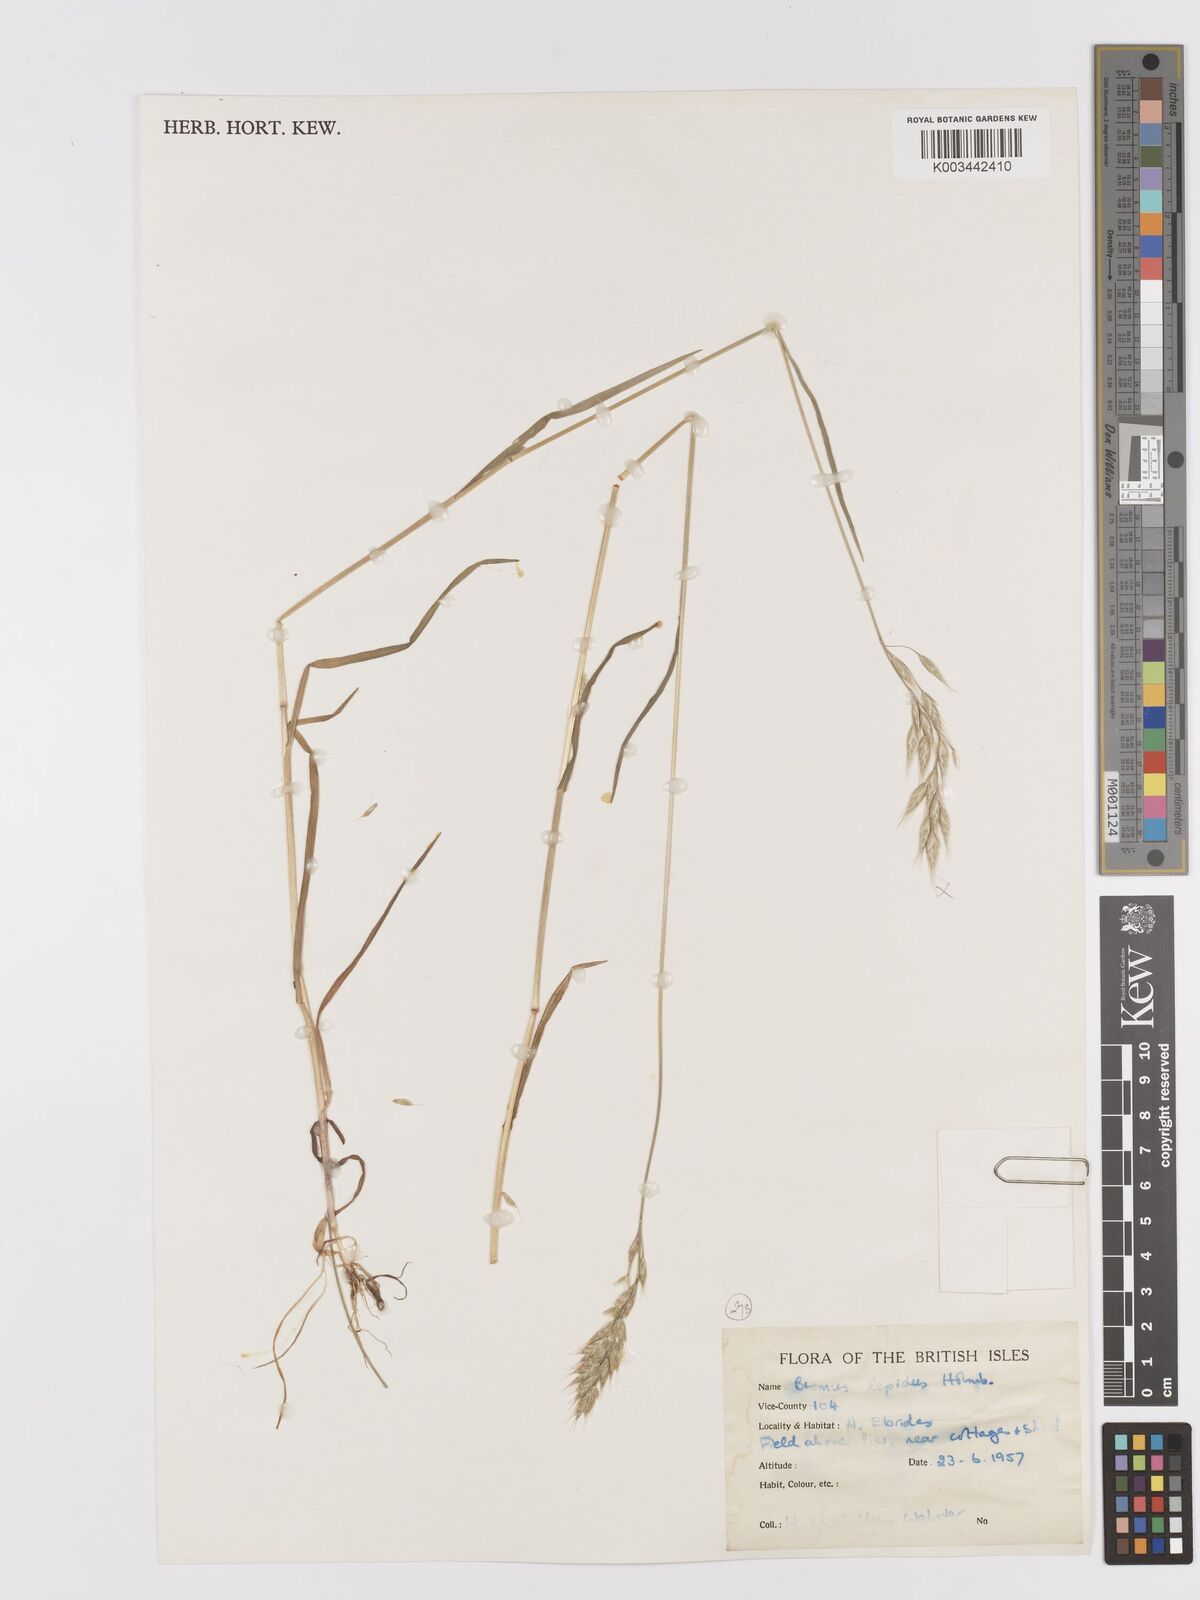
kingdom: Plantae
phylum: Tracheophyta
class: Liliopsida
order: Poales
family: Poaceae
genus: Bromus
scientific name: Bromus lepidus
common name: Slender soft-brome
